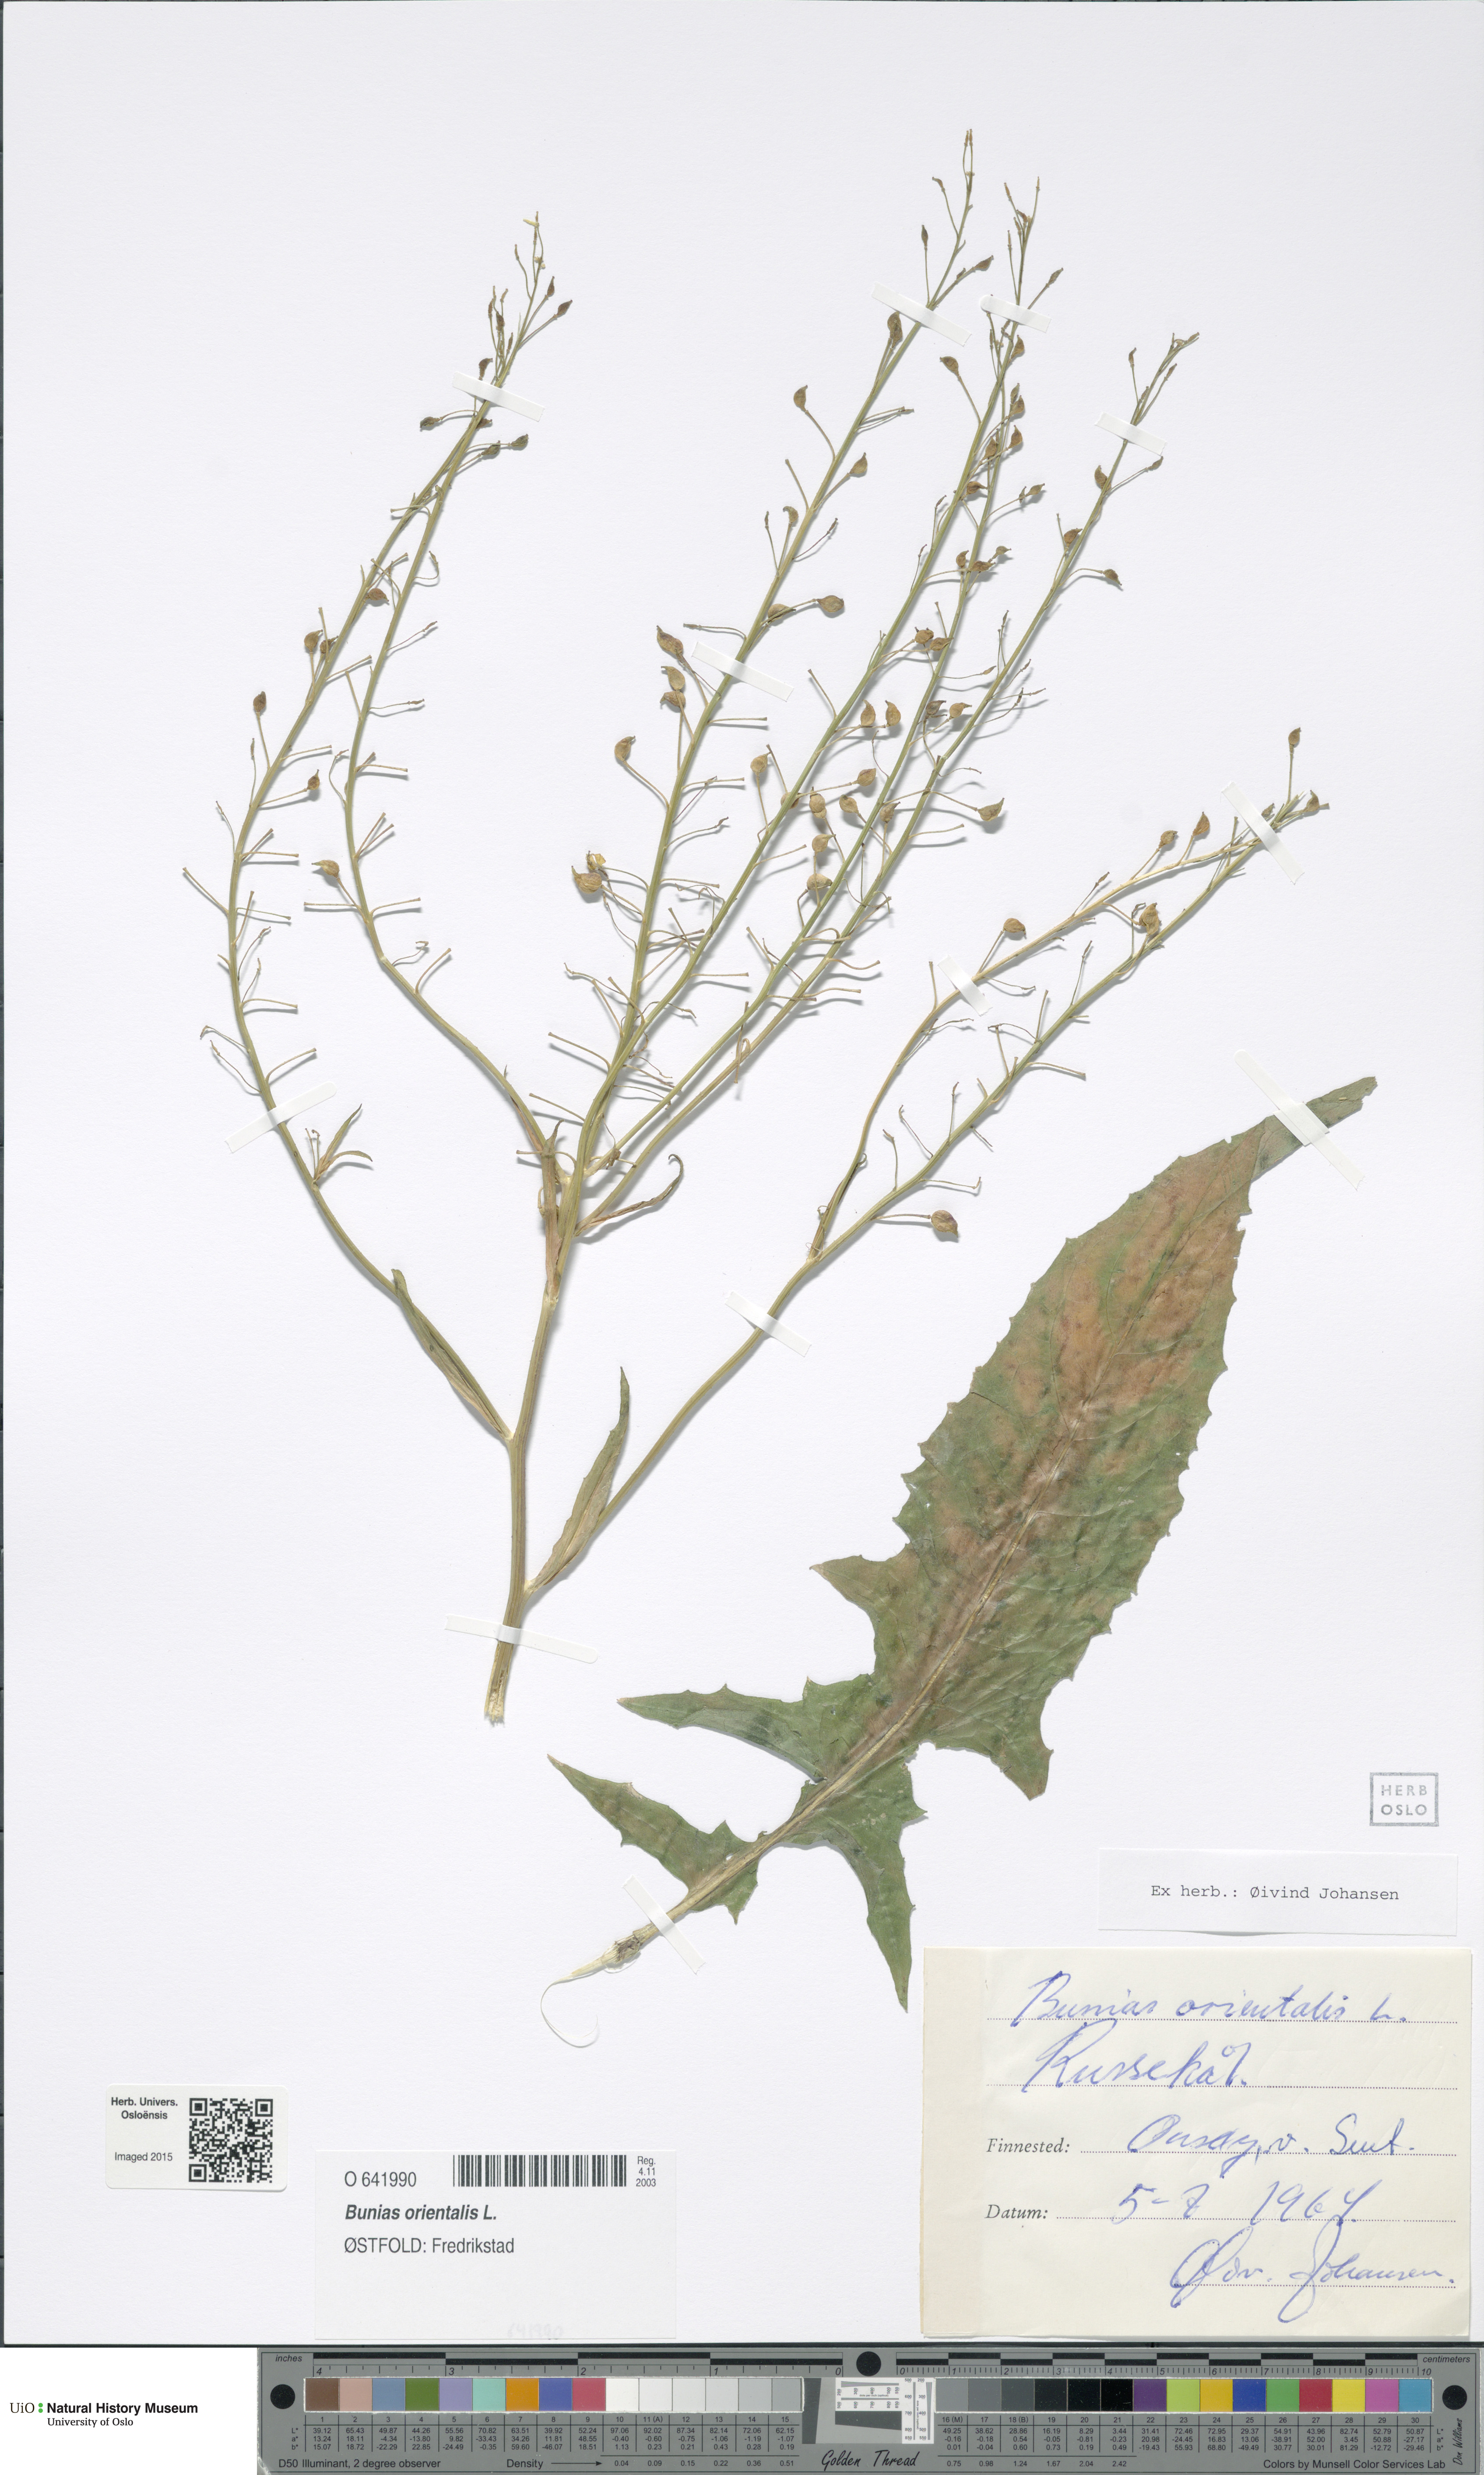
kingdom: Plantae
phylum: Tracheophyta
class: Magnoliopsida
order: Brassicales
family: Brassicaceae
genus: Bunias
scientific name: Bunias orientalis
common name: Warty-cabbage
